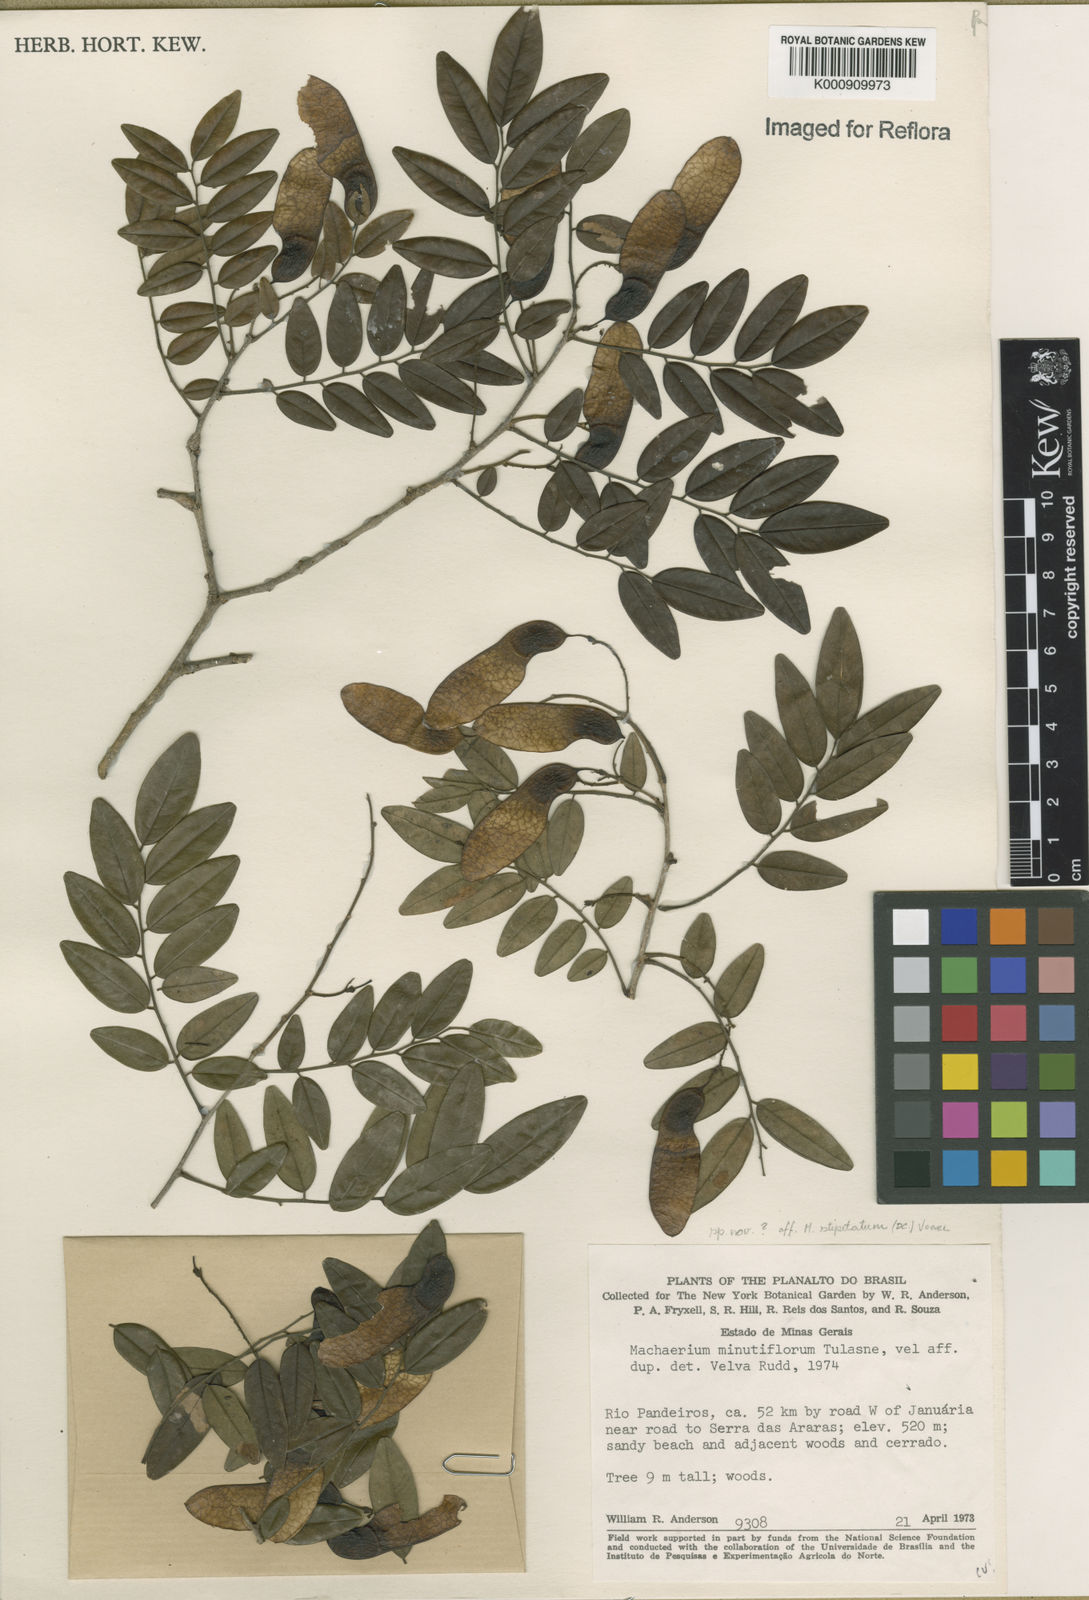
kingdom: Plantae
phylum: Tracheophyta
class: Magnoliopsida
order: Fabales
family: Fabaceae
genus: Machaerium
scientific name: Machaerium stipitatum
